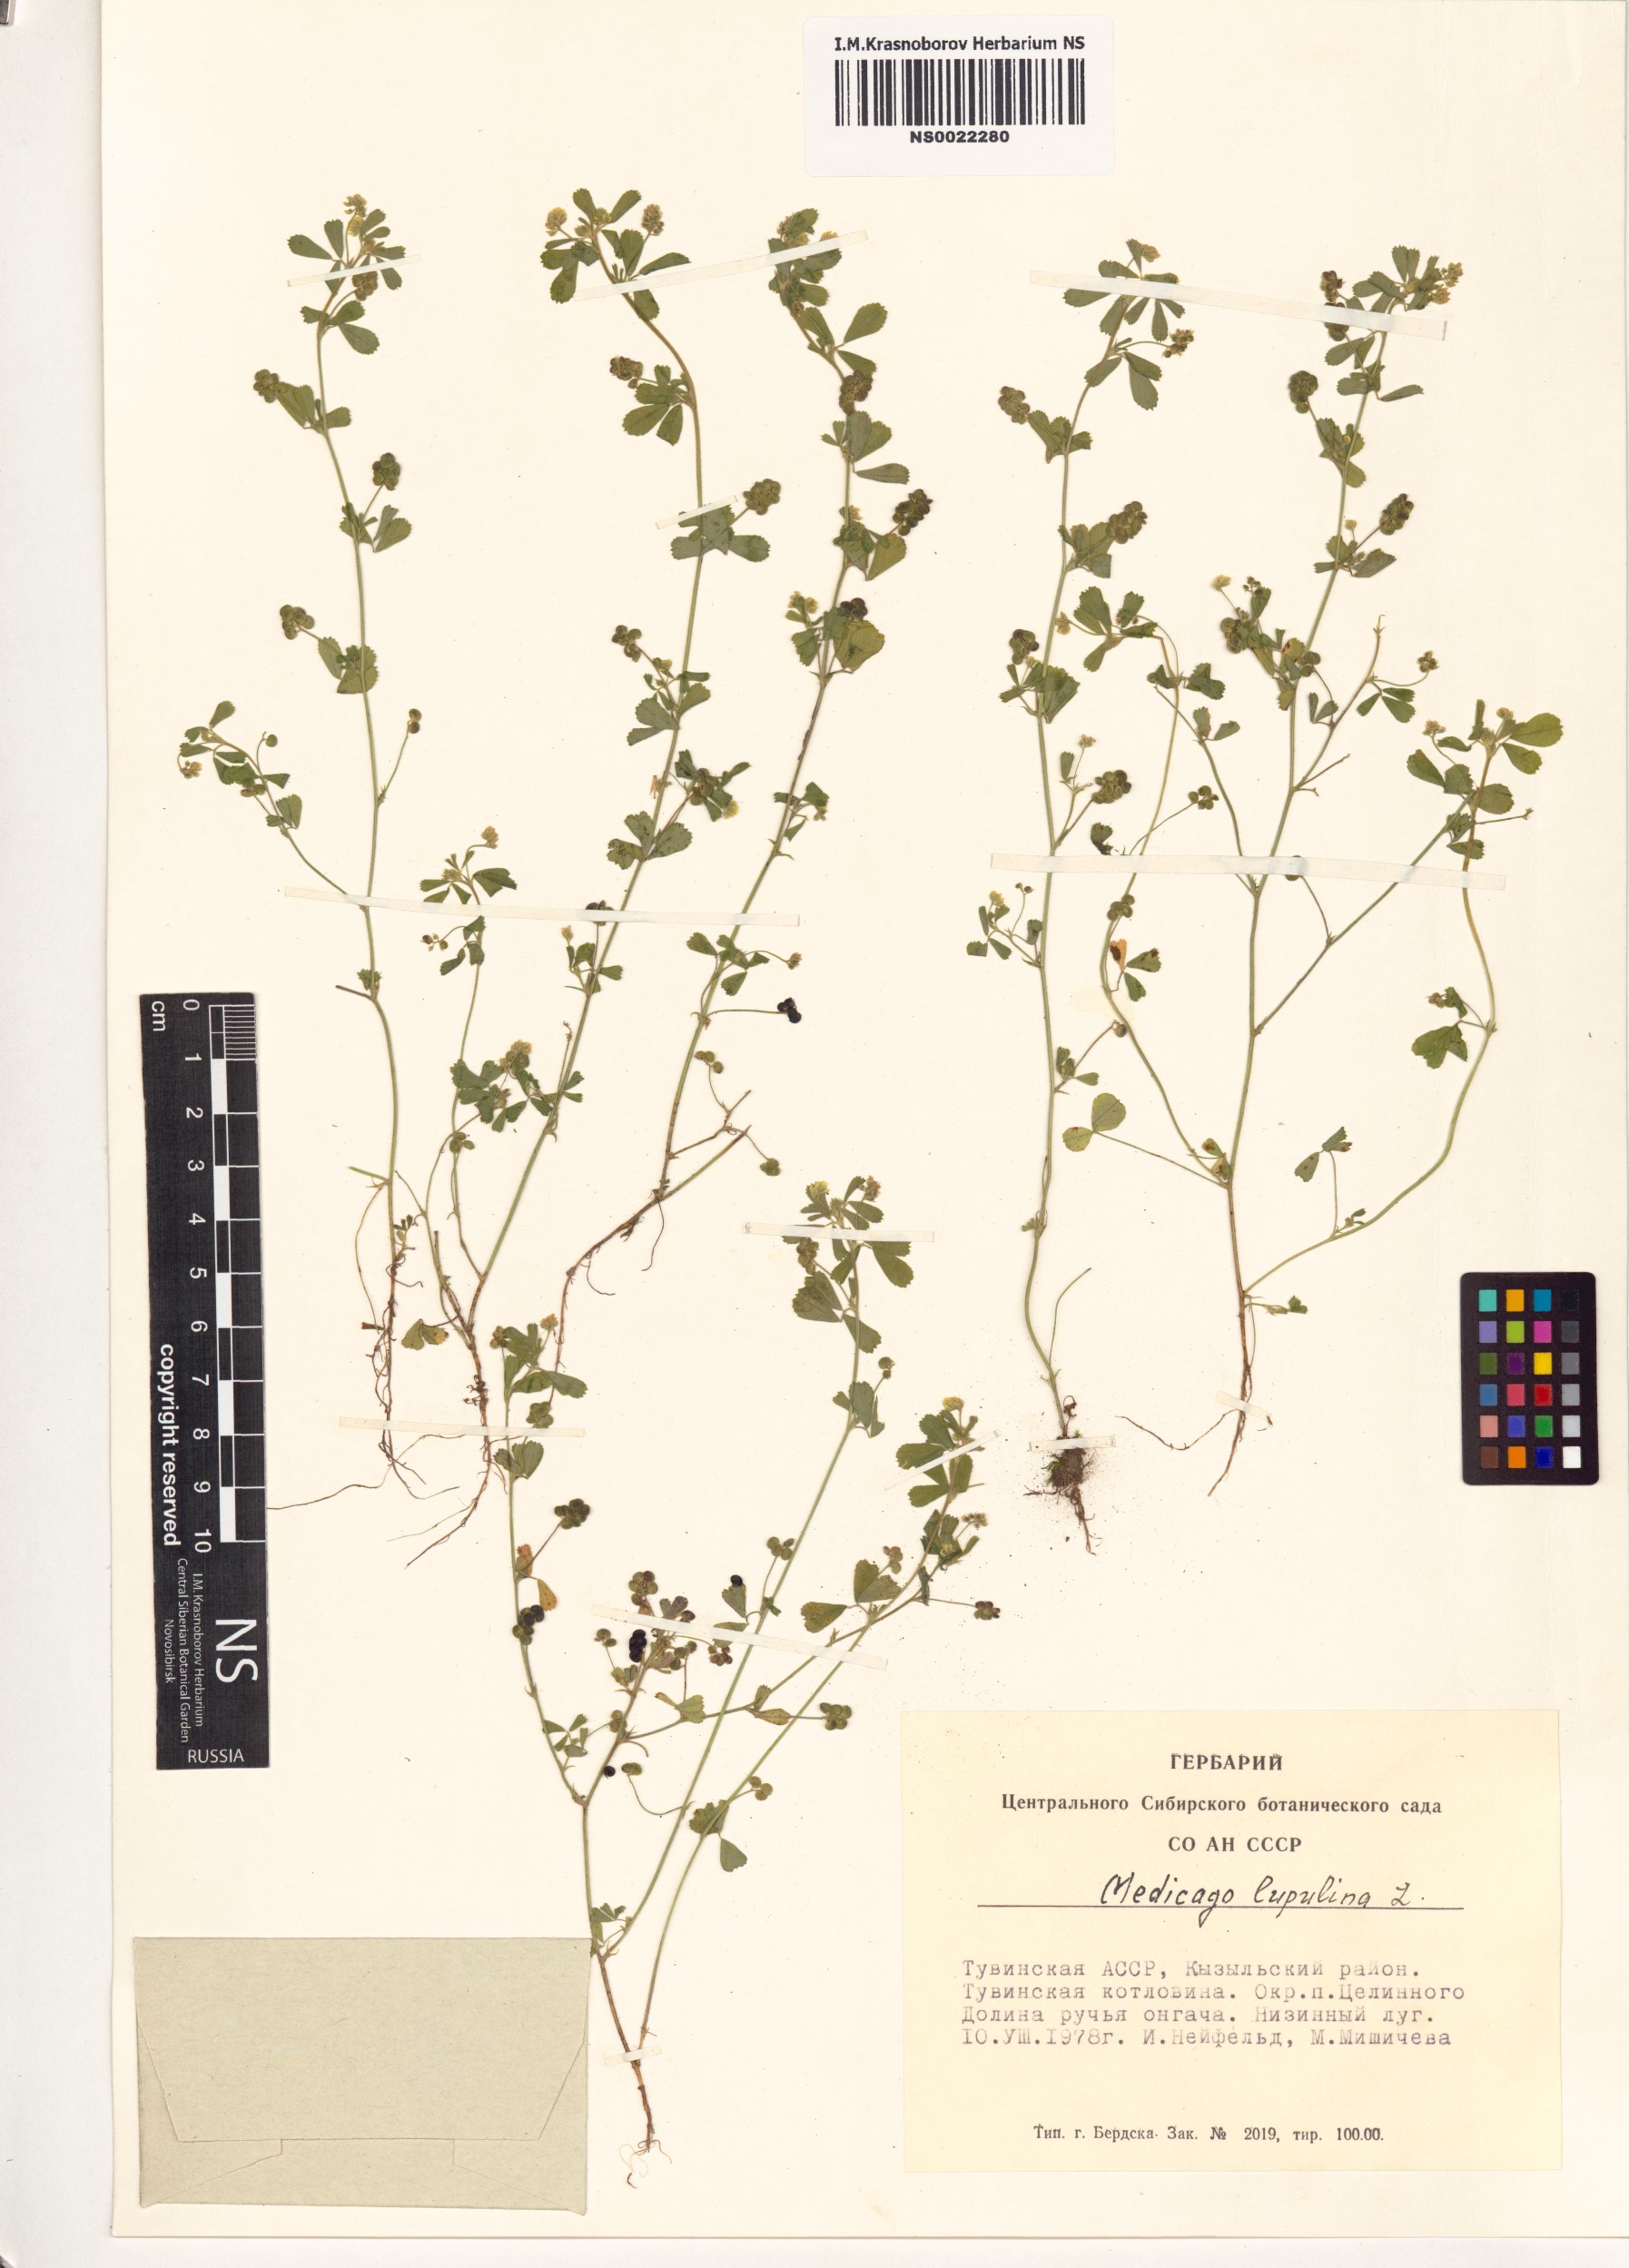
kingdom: Plantae
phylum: Tracheophyta
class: Magnoliopsida
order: Fabales
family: Fabaceae
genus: Medicago
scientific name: Medicago lupulina
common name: Black medick
